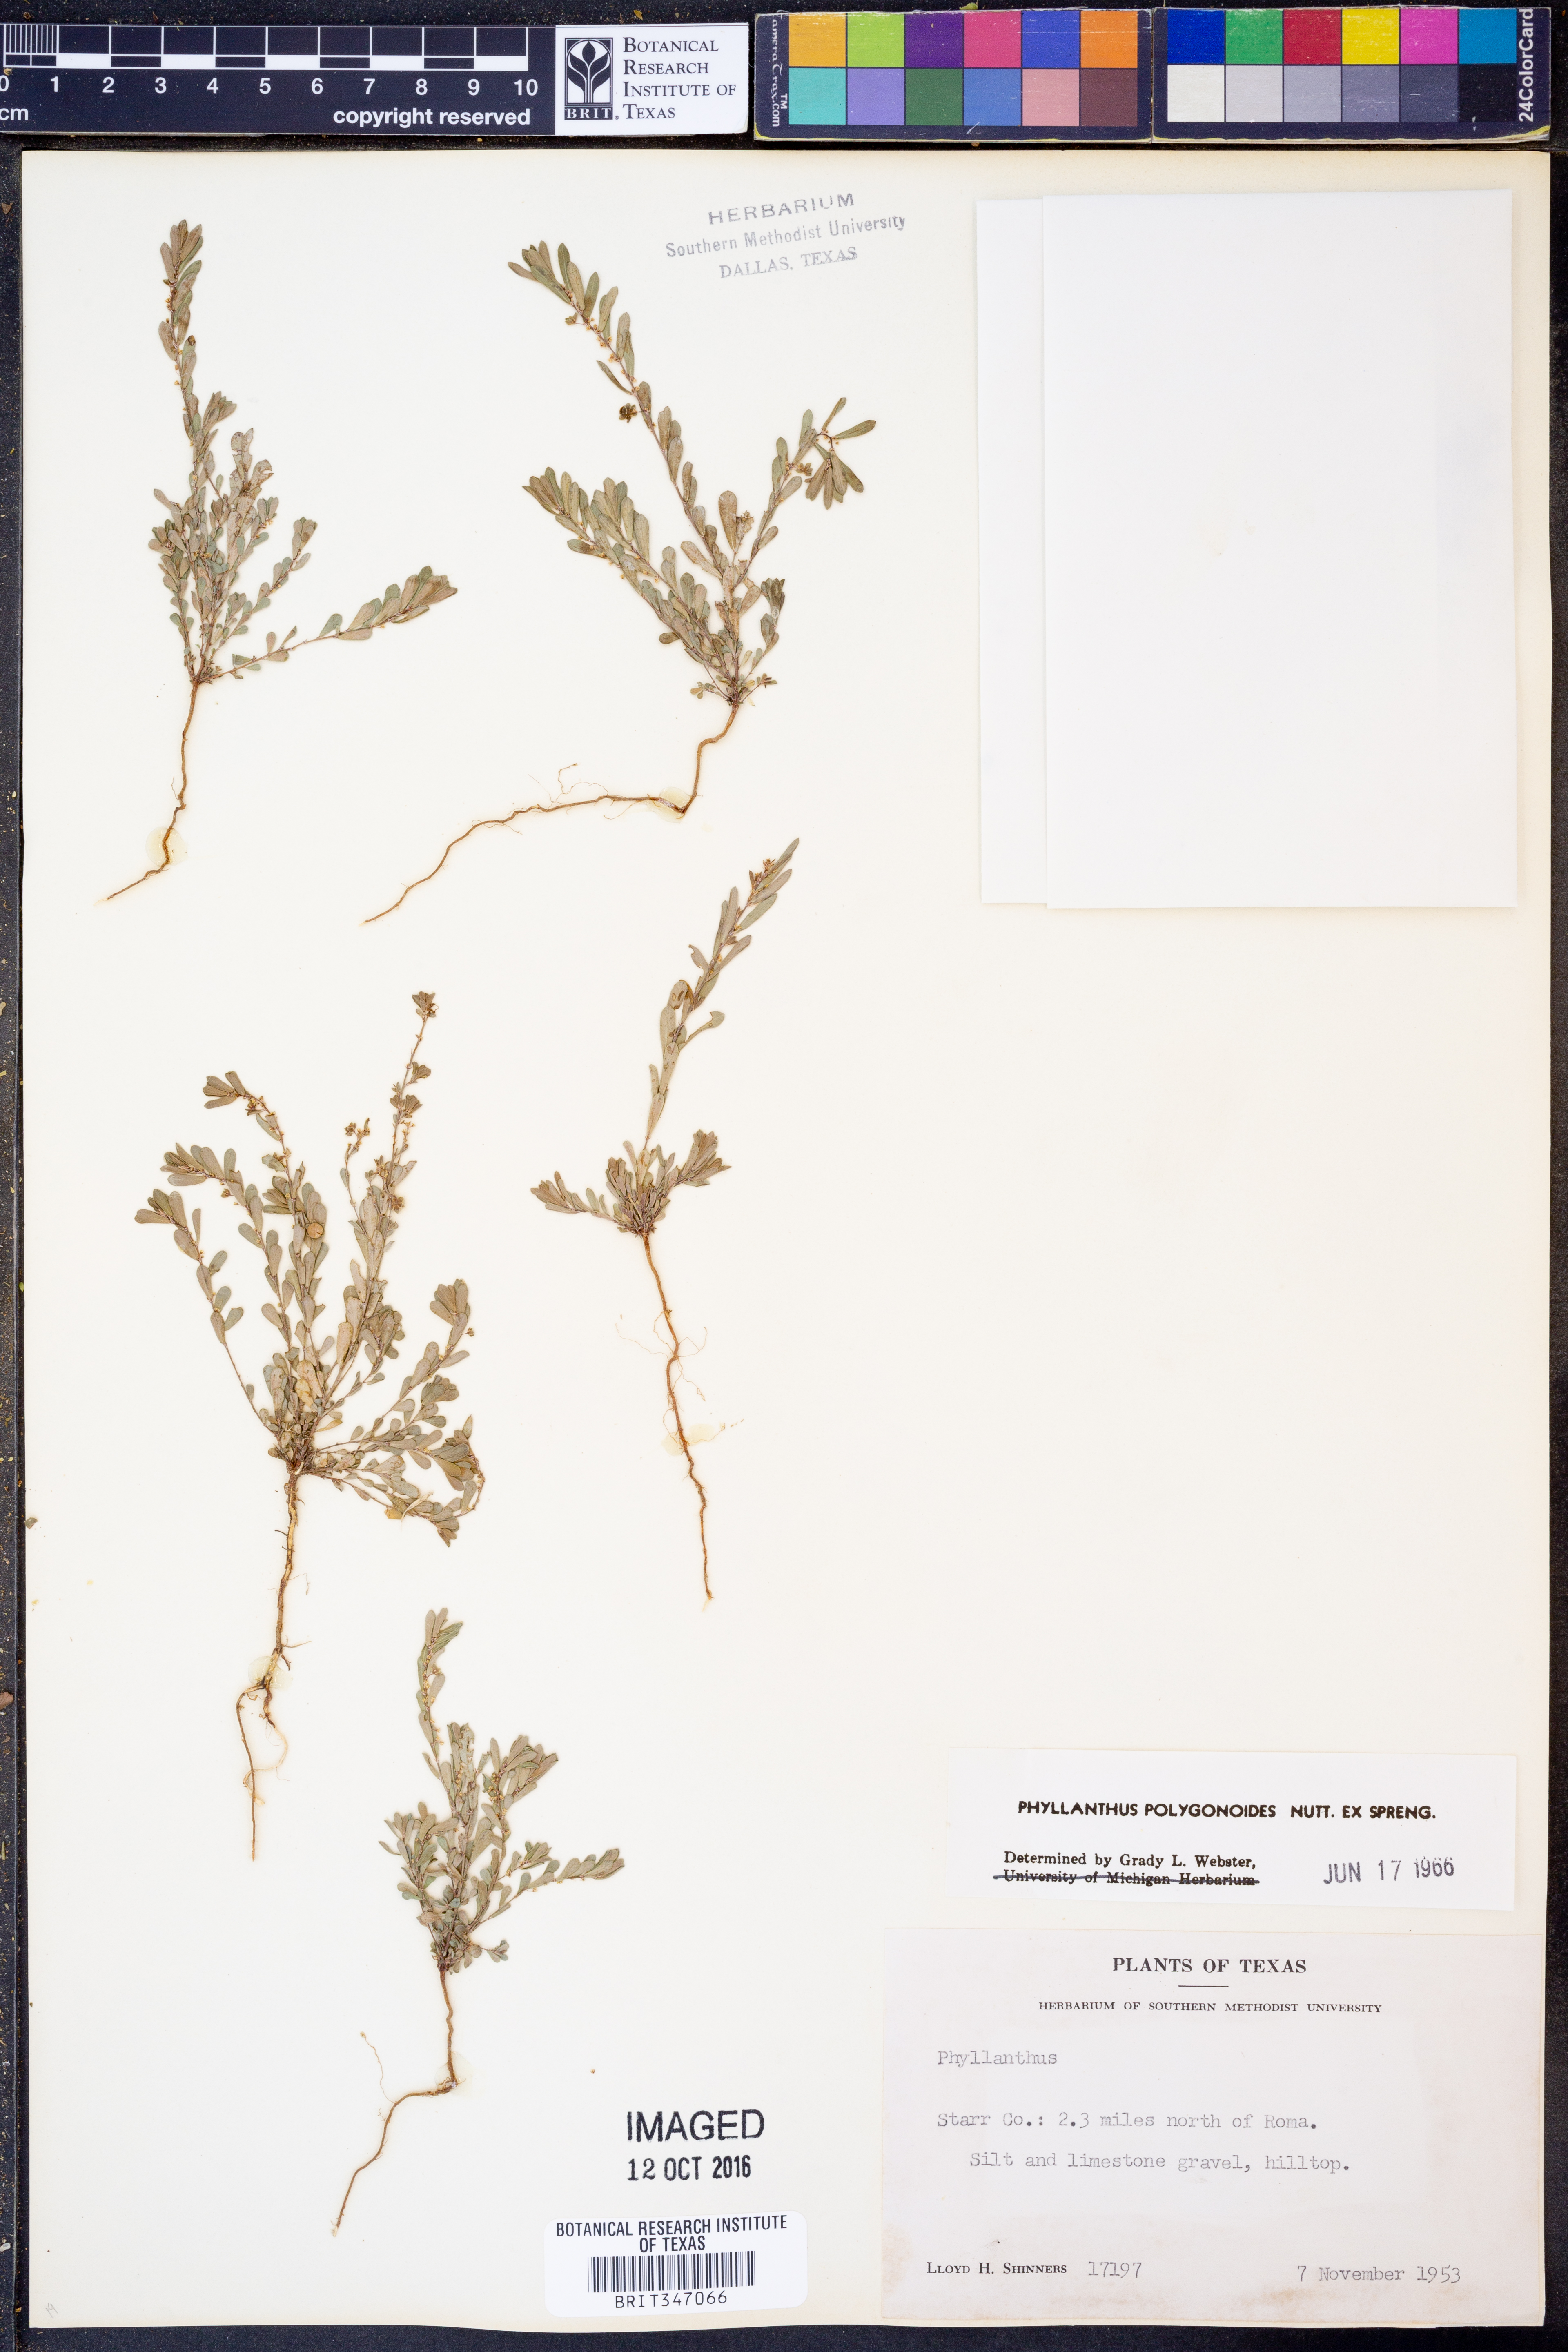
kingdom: Plantae
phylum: Tracheophyta
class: Magnoliopsida
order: Malpighiales
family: Phyllanthaceae
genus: Phyllanthus
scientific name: Phyllanthus polygonoides
